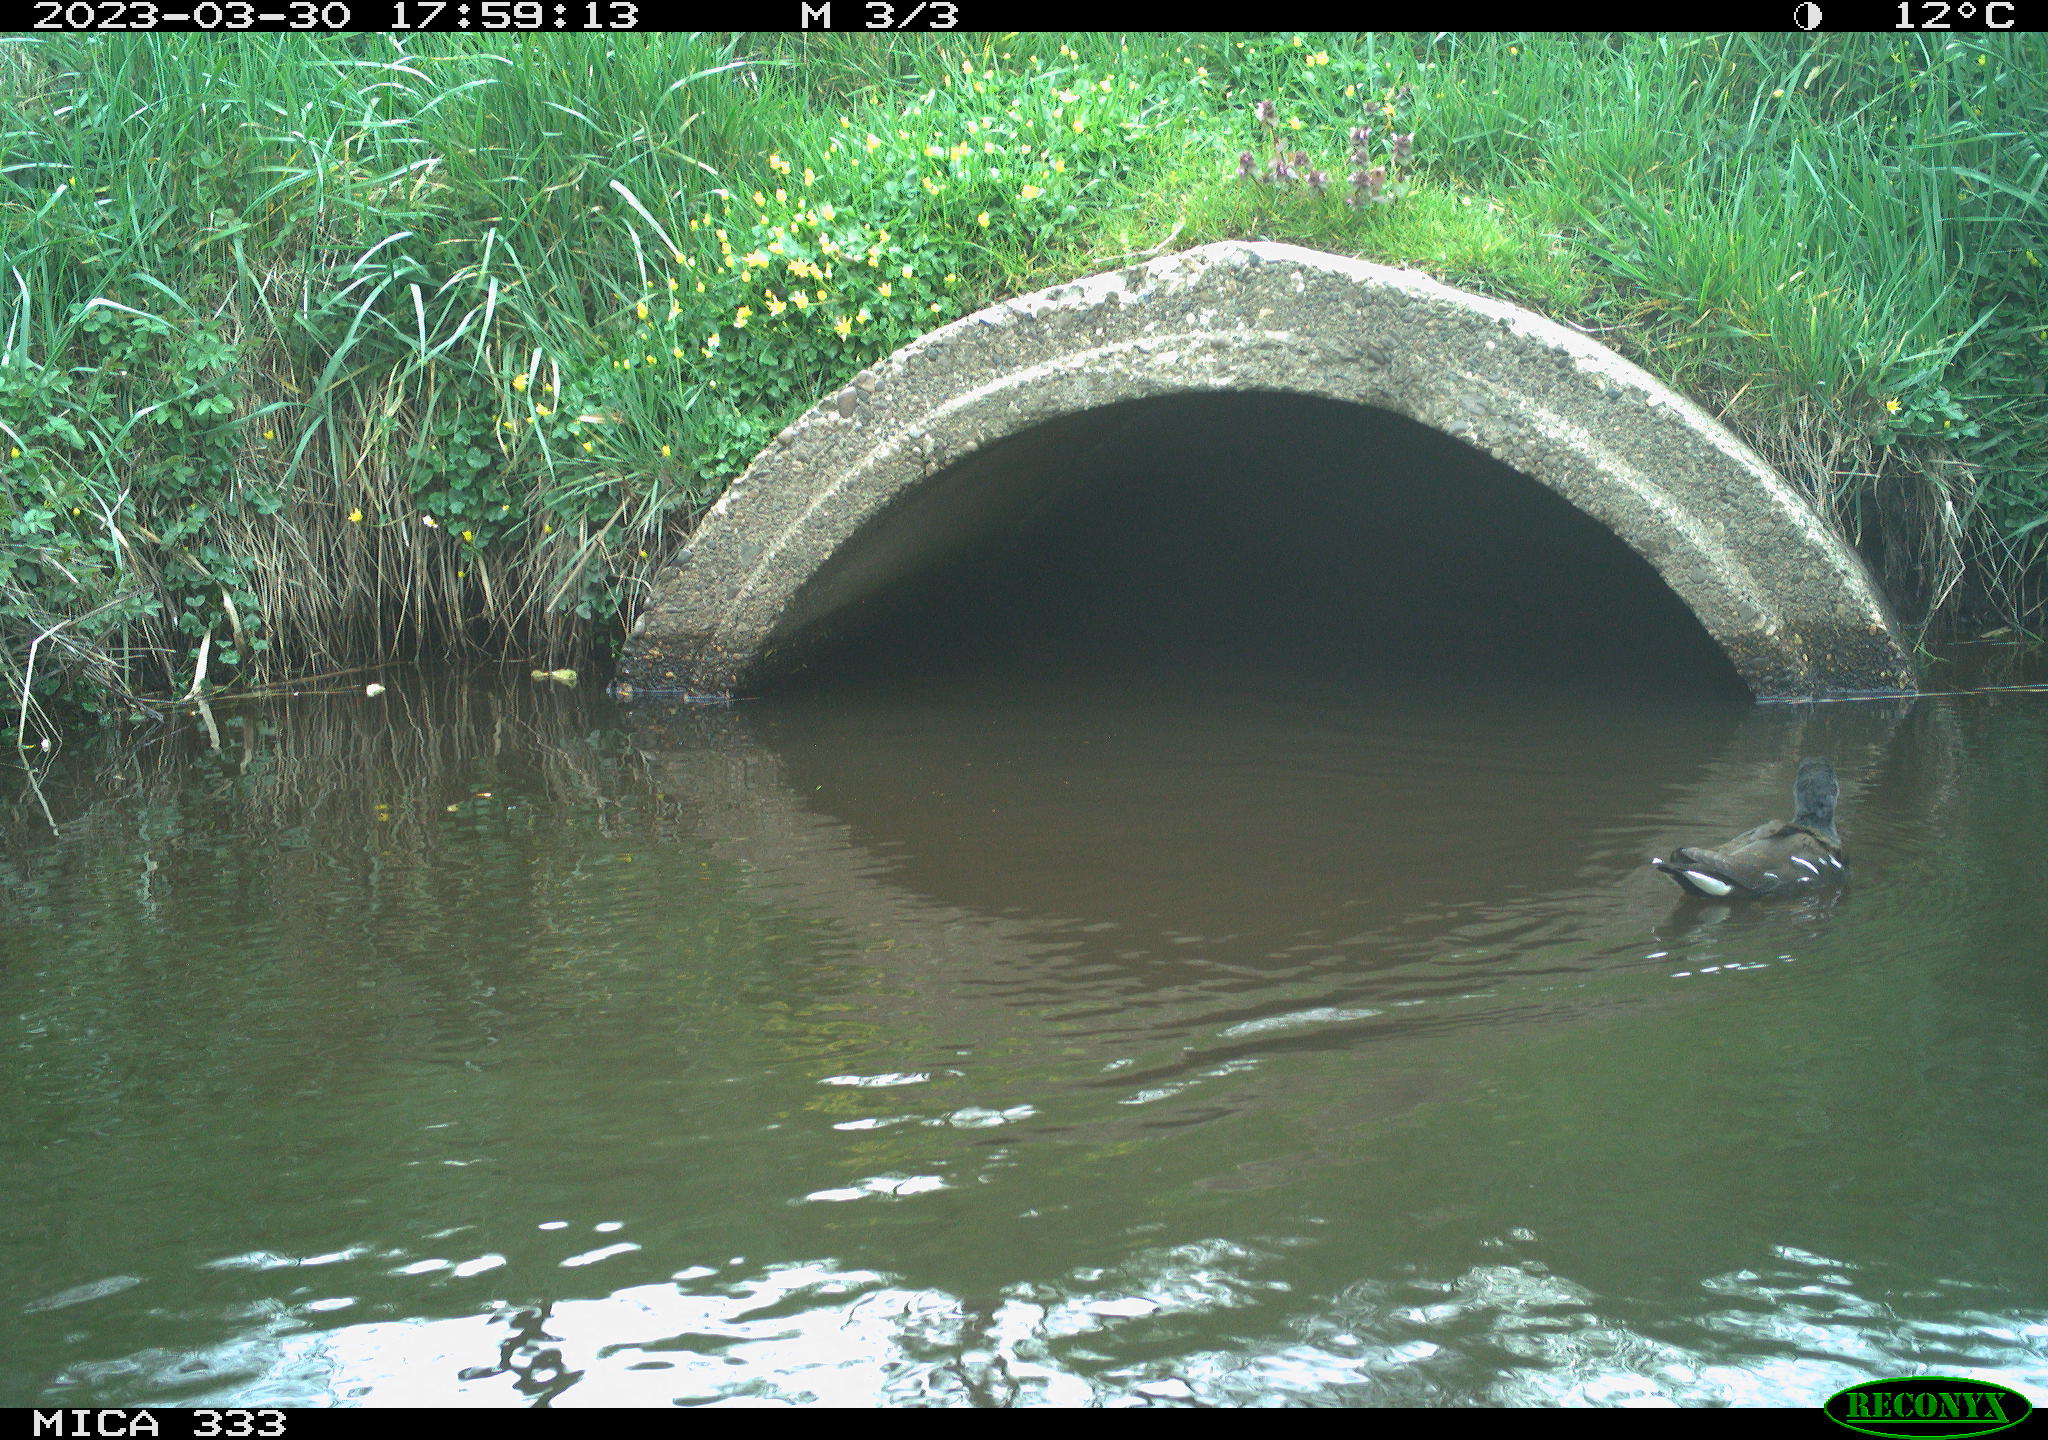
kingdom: Animalia
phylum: Chordata
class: Aves
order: Gruiformes
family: Rallidae
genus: Gallinula
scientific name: Gallinula chloropus
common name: Common moorhen
